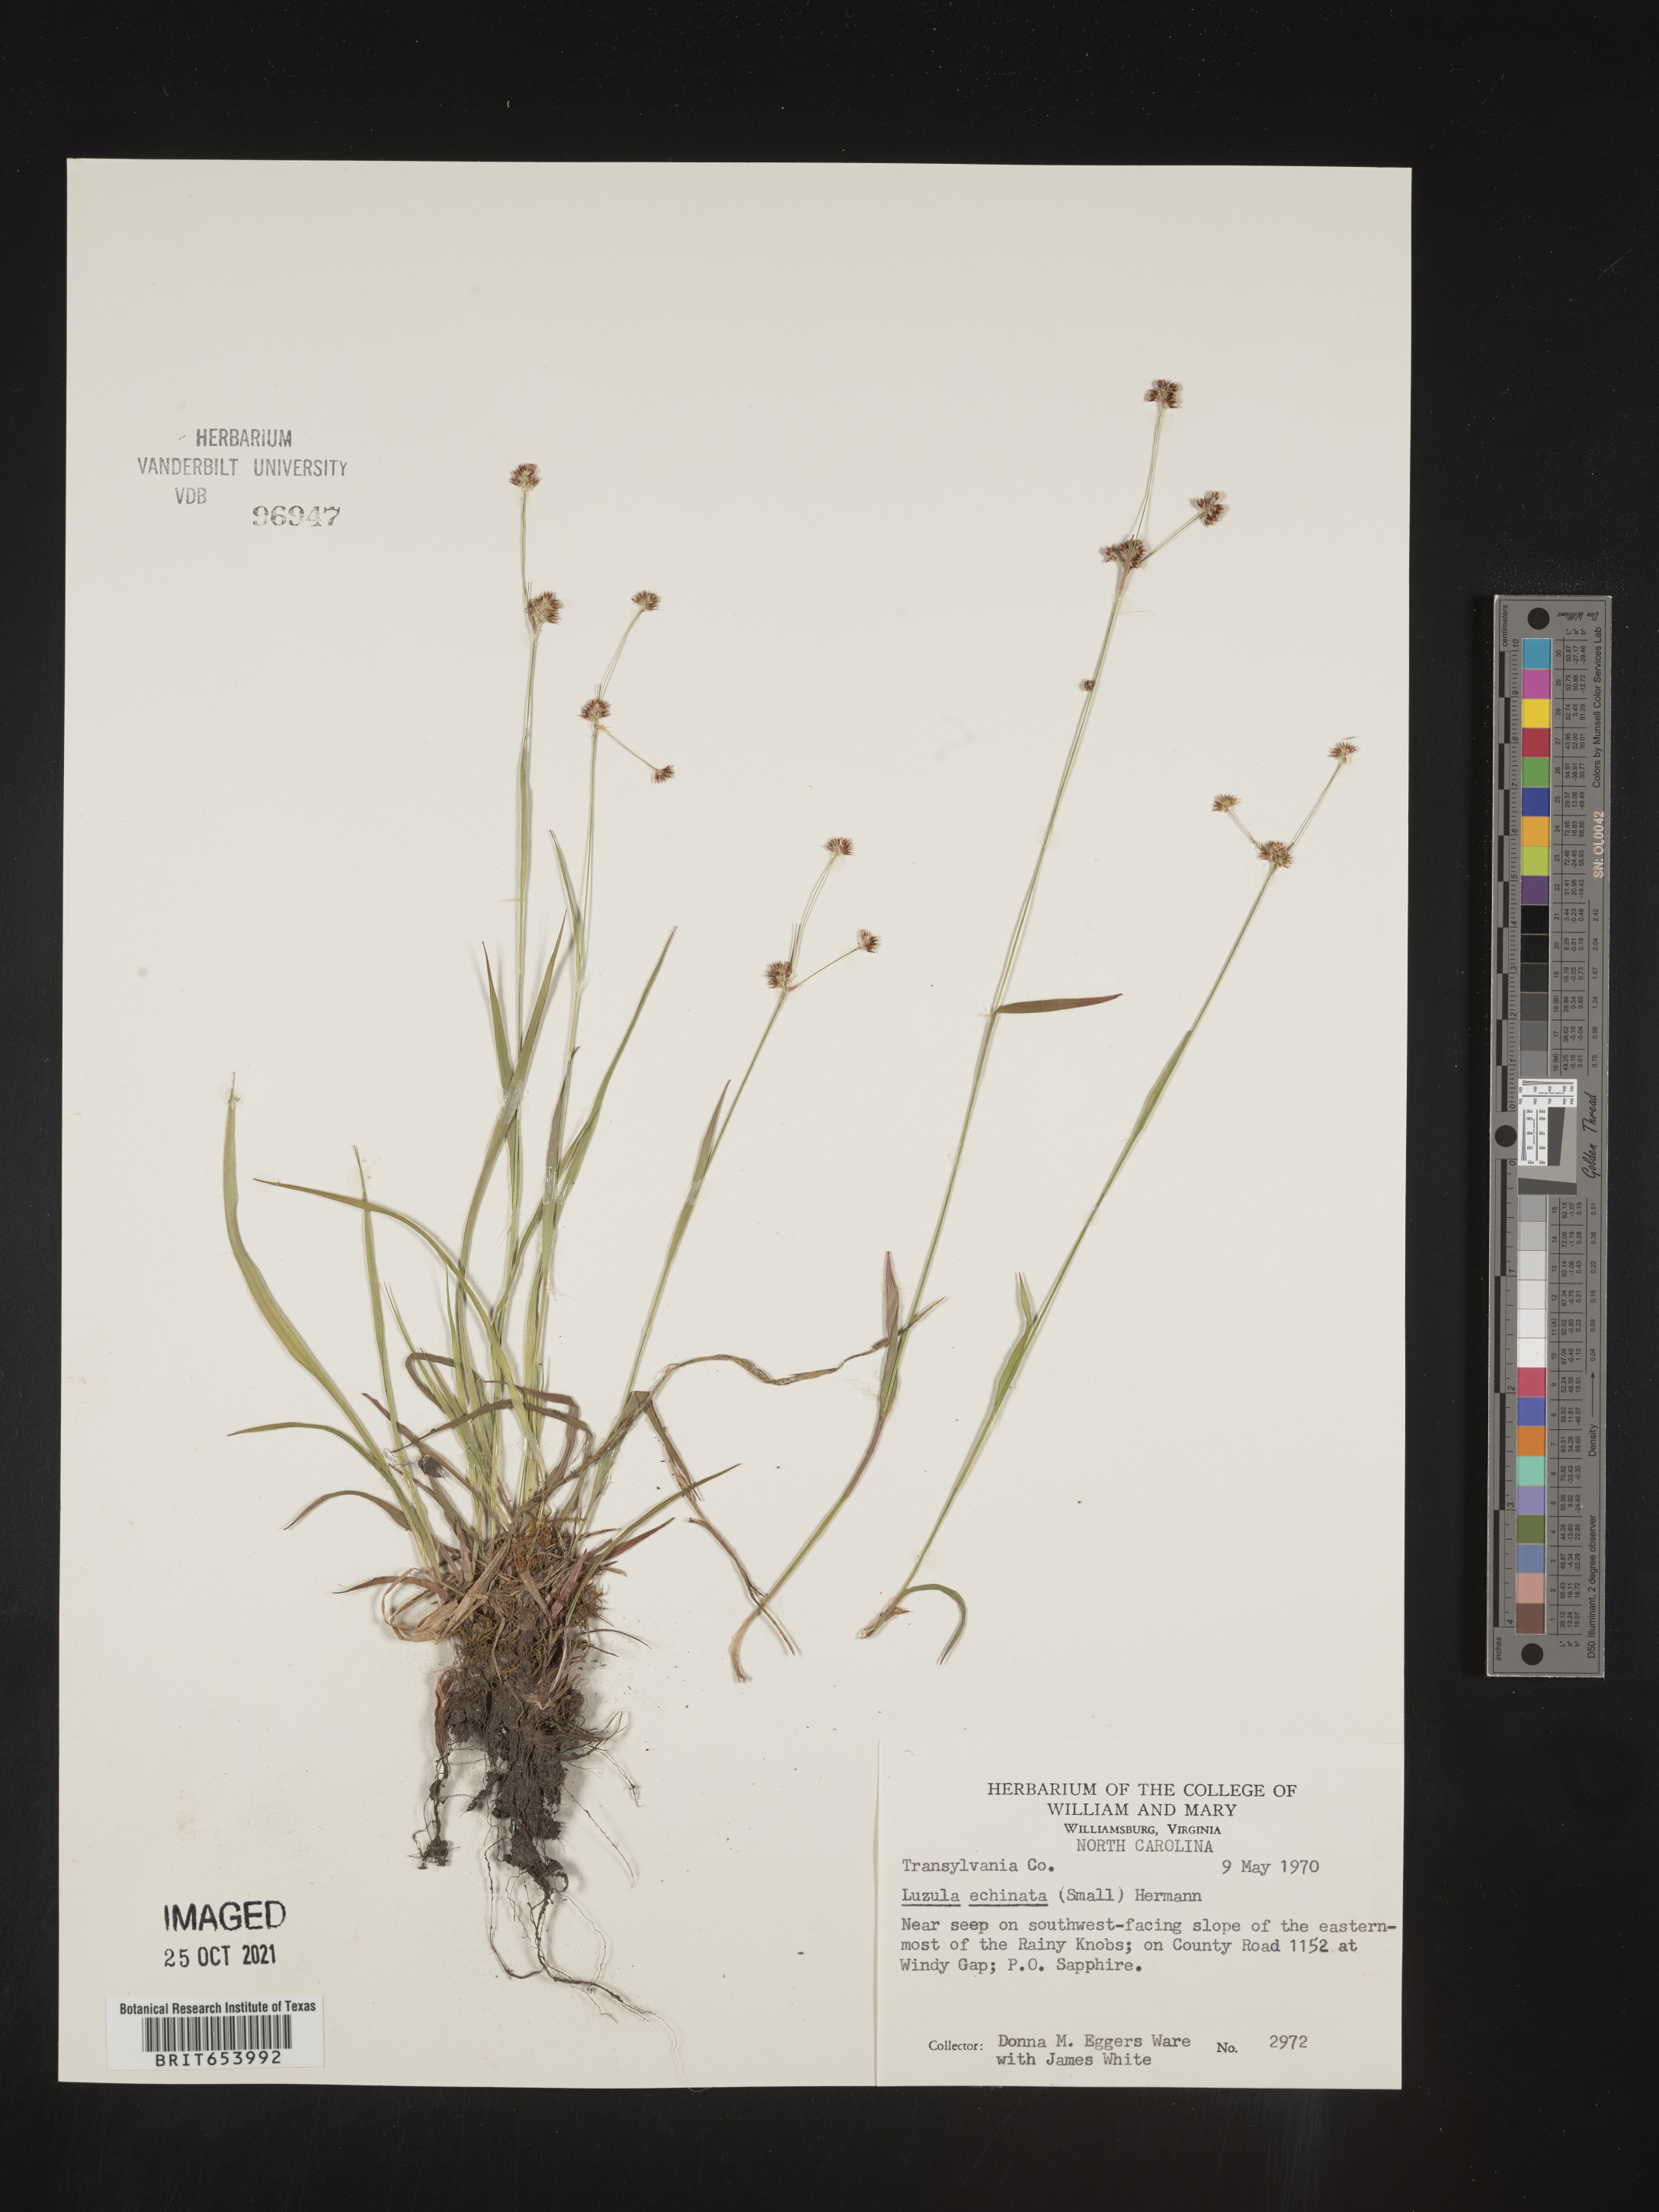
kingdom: Plantae
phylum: Tracheophyta
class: Liliopsida
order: Poales
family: Juncaceae
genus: Luzula
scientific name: Luzula echinata
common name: Hedgehog woodrush
